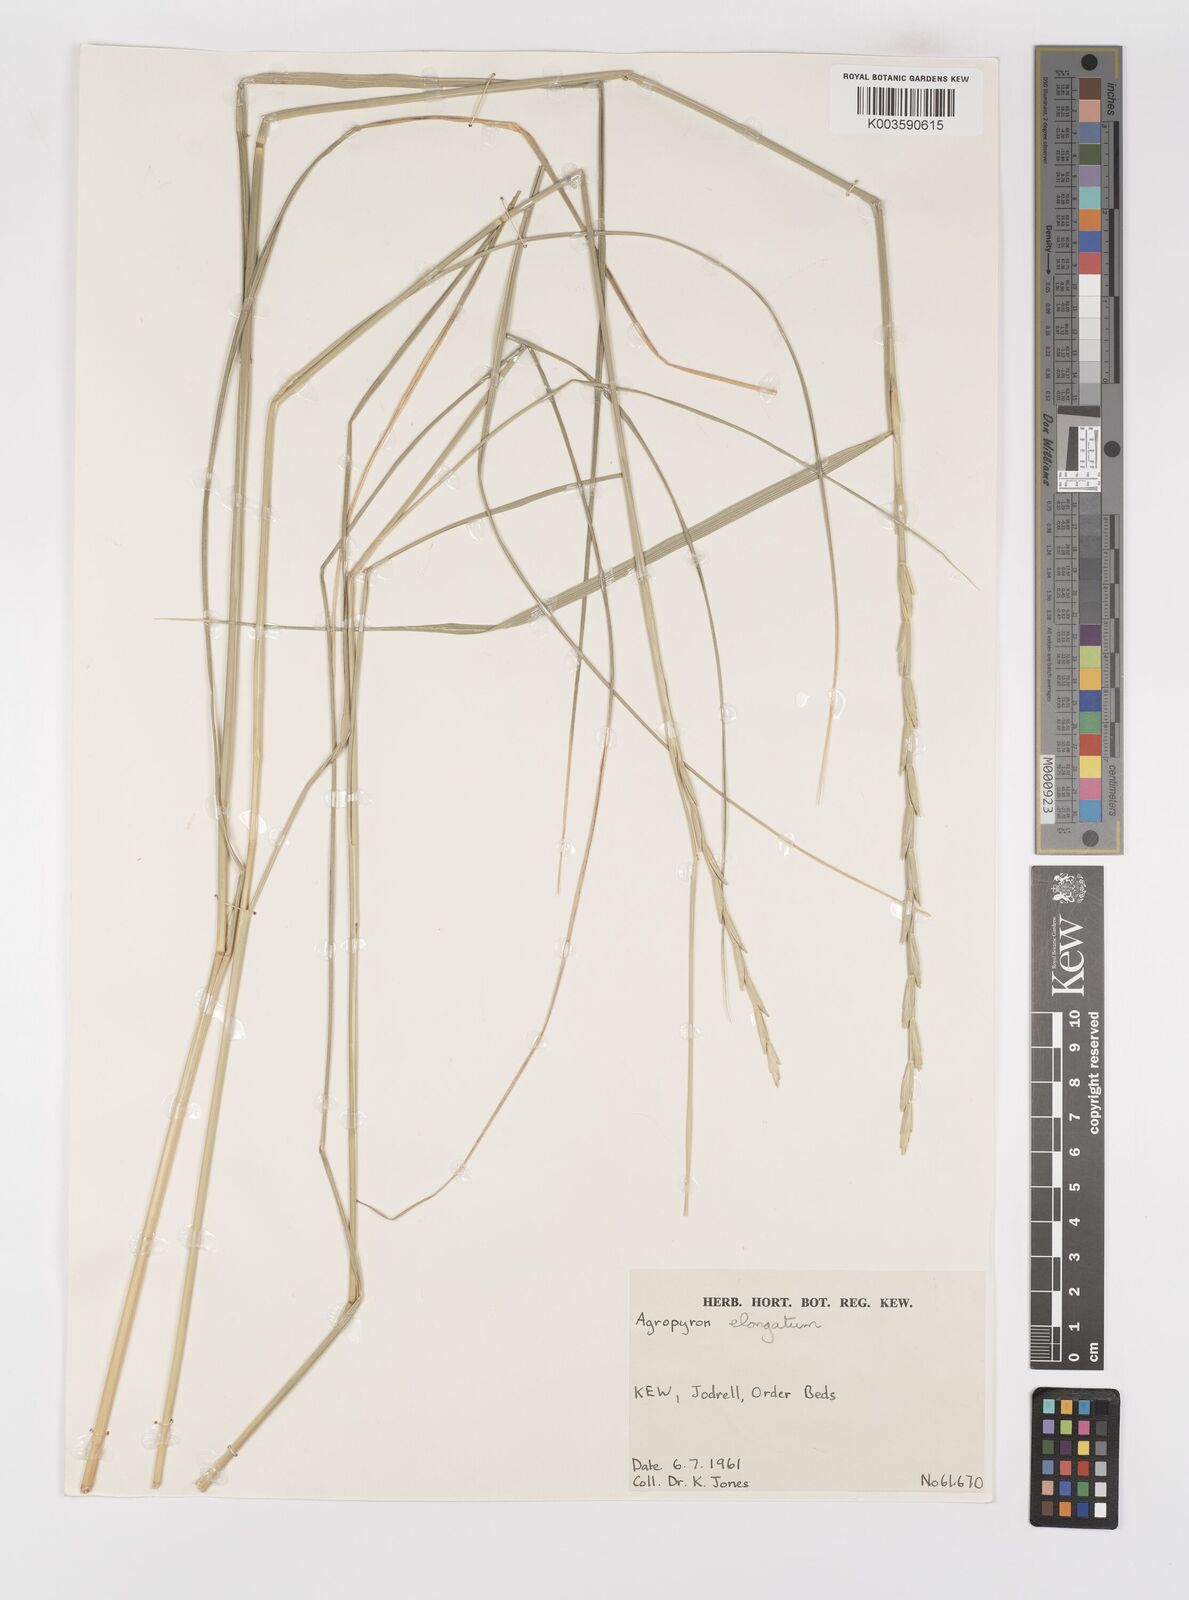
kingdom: Plantae
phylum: Tracheophyta
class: Liliopsida
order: Poales
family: Poaceae
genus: Thinopyrum
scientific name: Thinopyrum elongatum
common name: Tall wheatgrass
